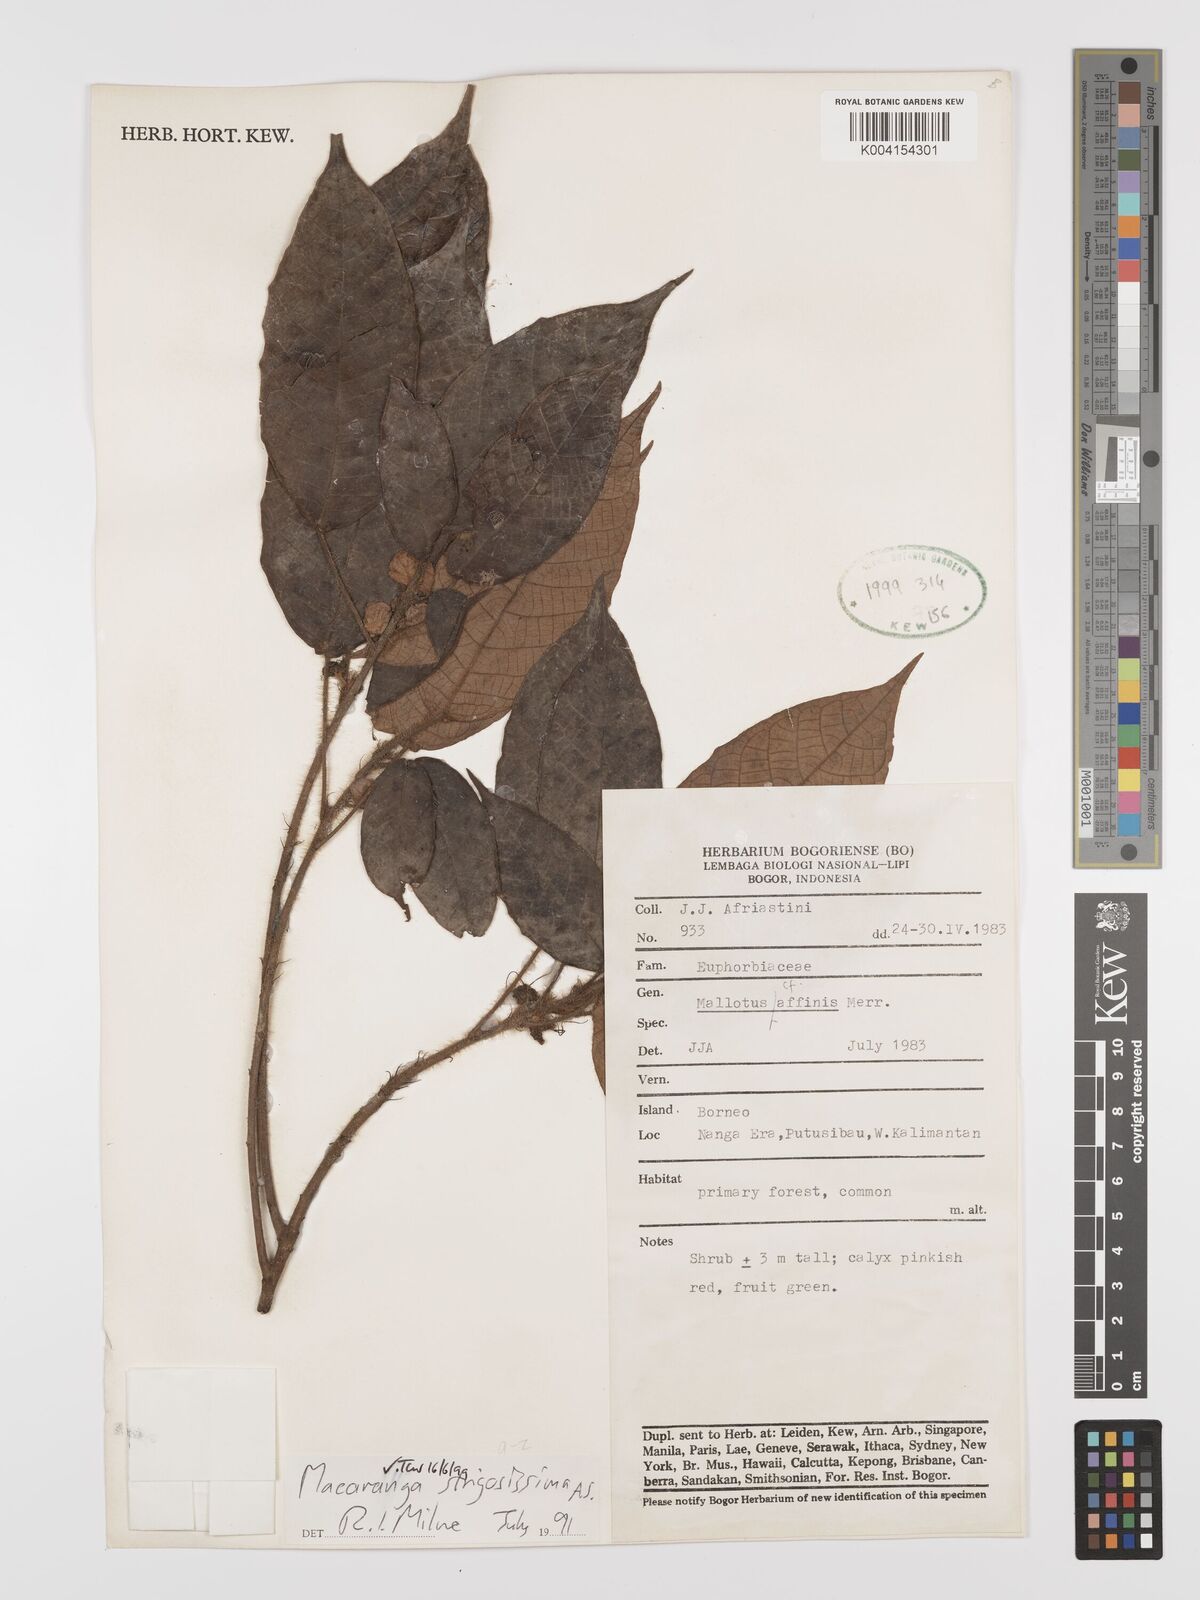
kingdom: Plantae
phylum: Tracheophyta
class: Magnoliopsida
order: Malpighiales
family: Euphorbiaceae
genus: Macaranga
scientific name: Macaranga strigosissima
